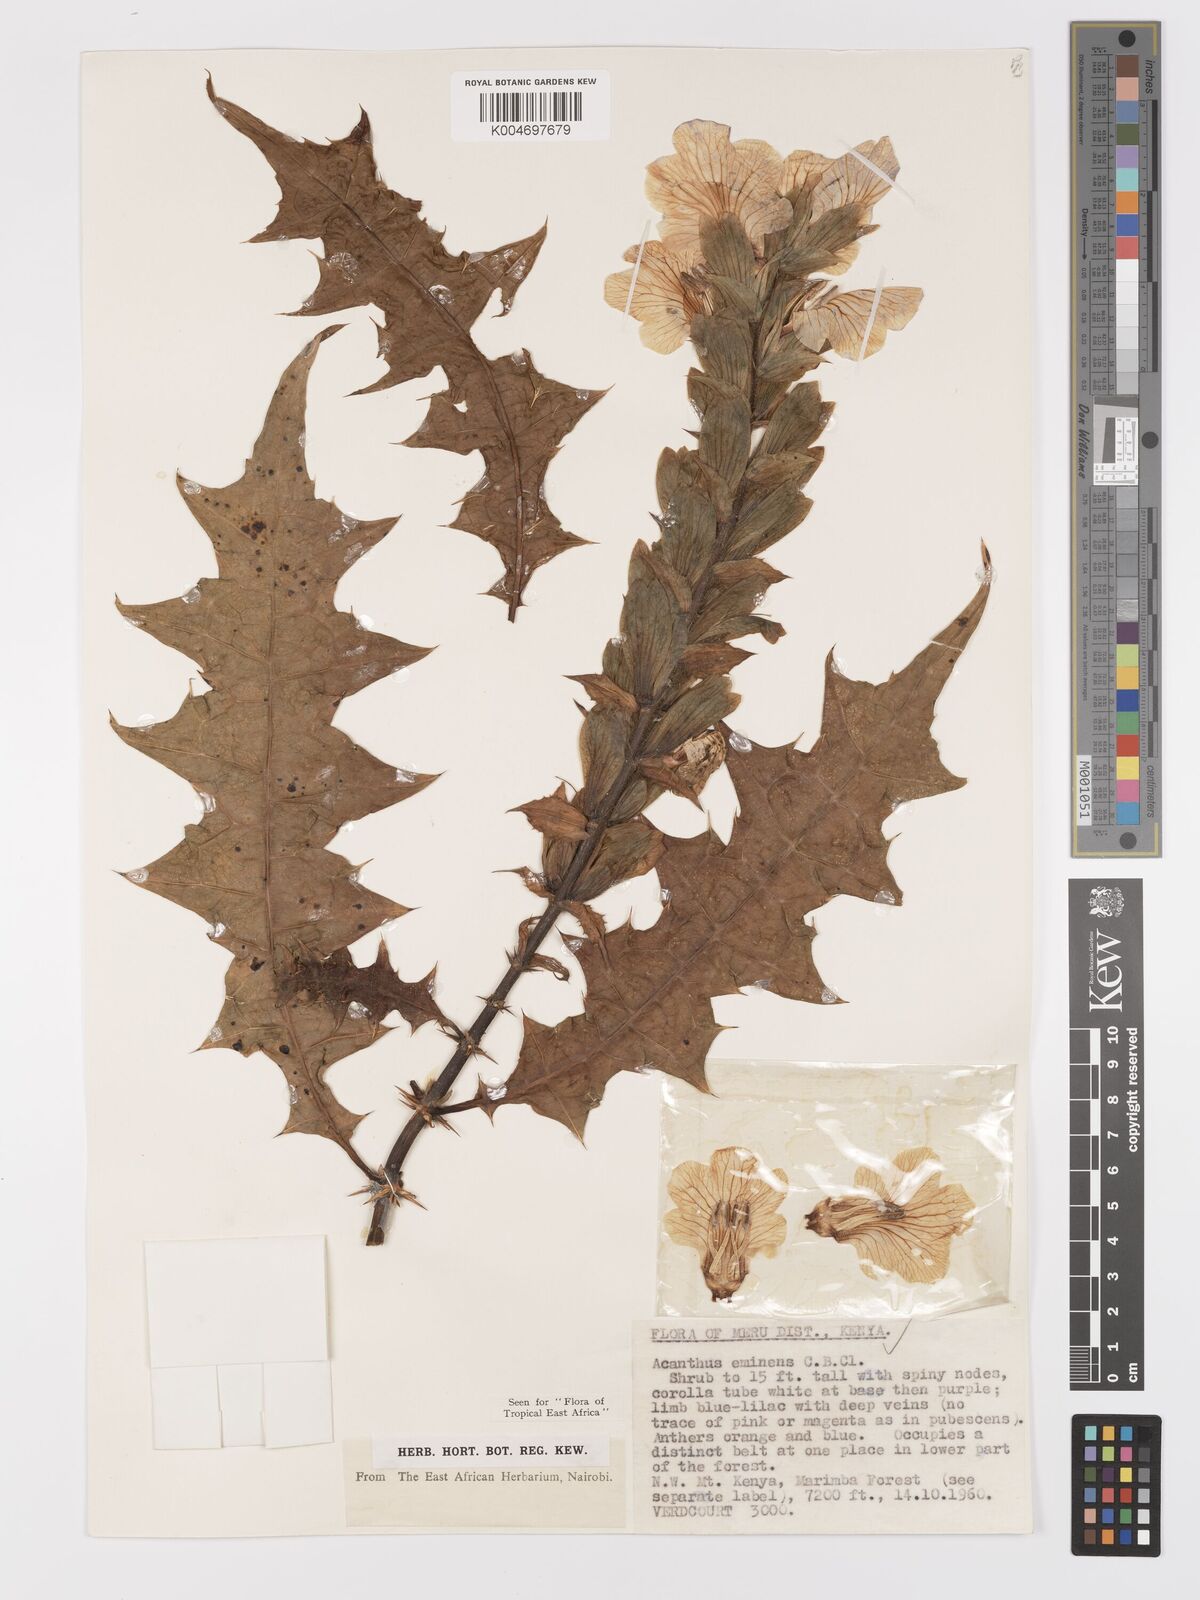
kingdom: Plantae
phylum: Tracheophyta
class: Magnoliopsida
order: Lamiales
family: Acanthaceae
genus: Acanthus
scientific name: Acanthus eminens
